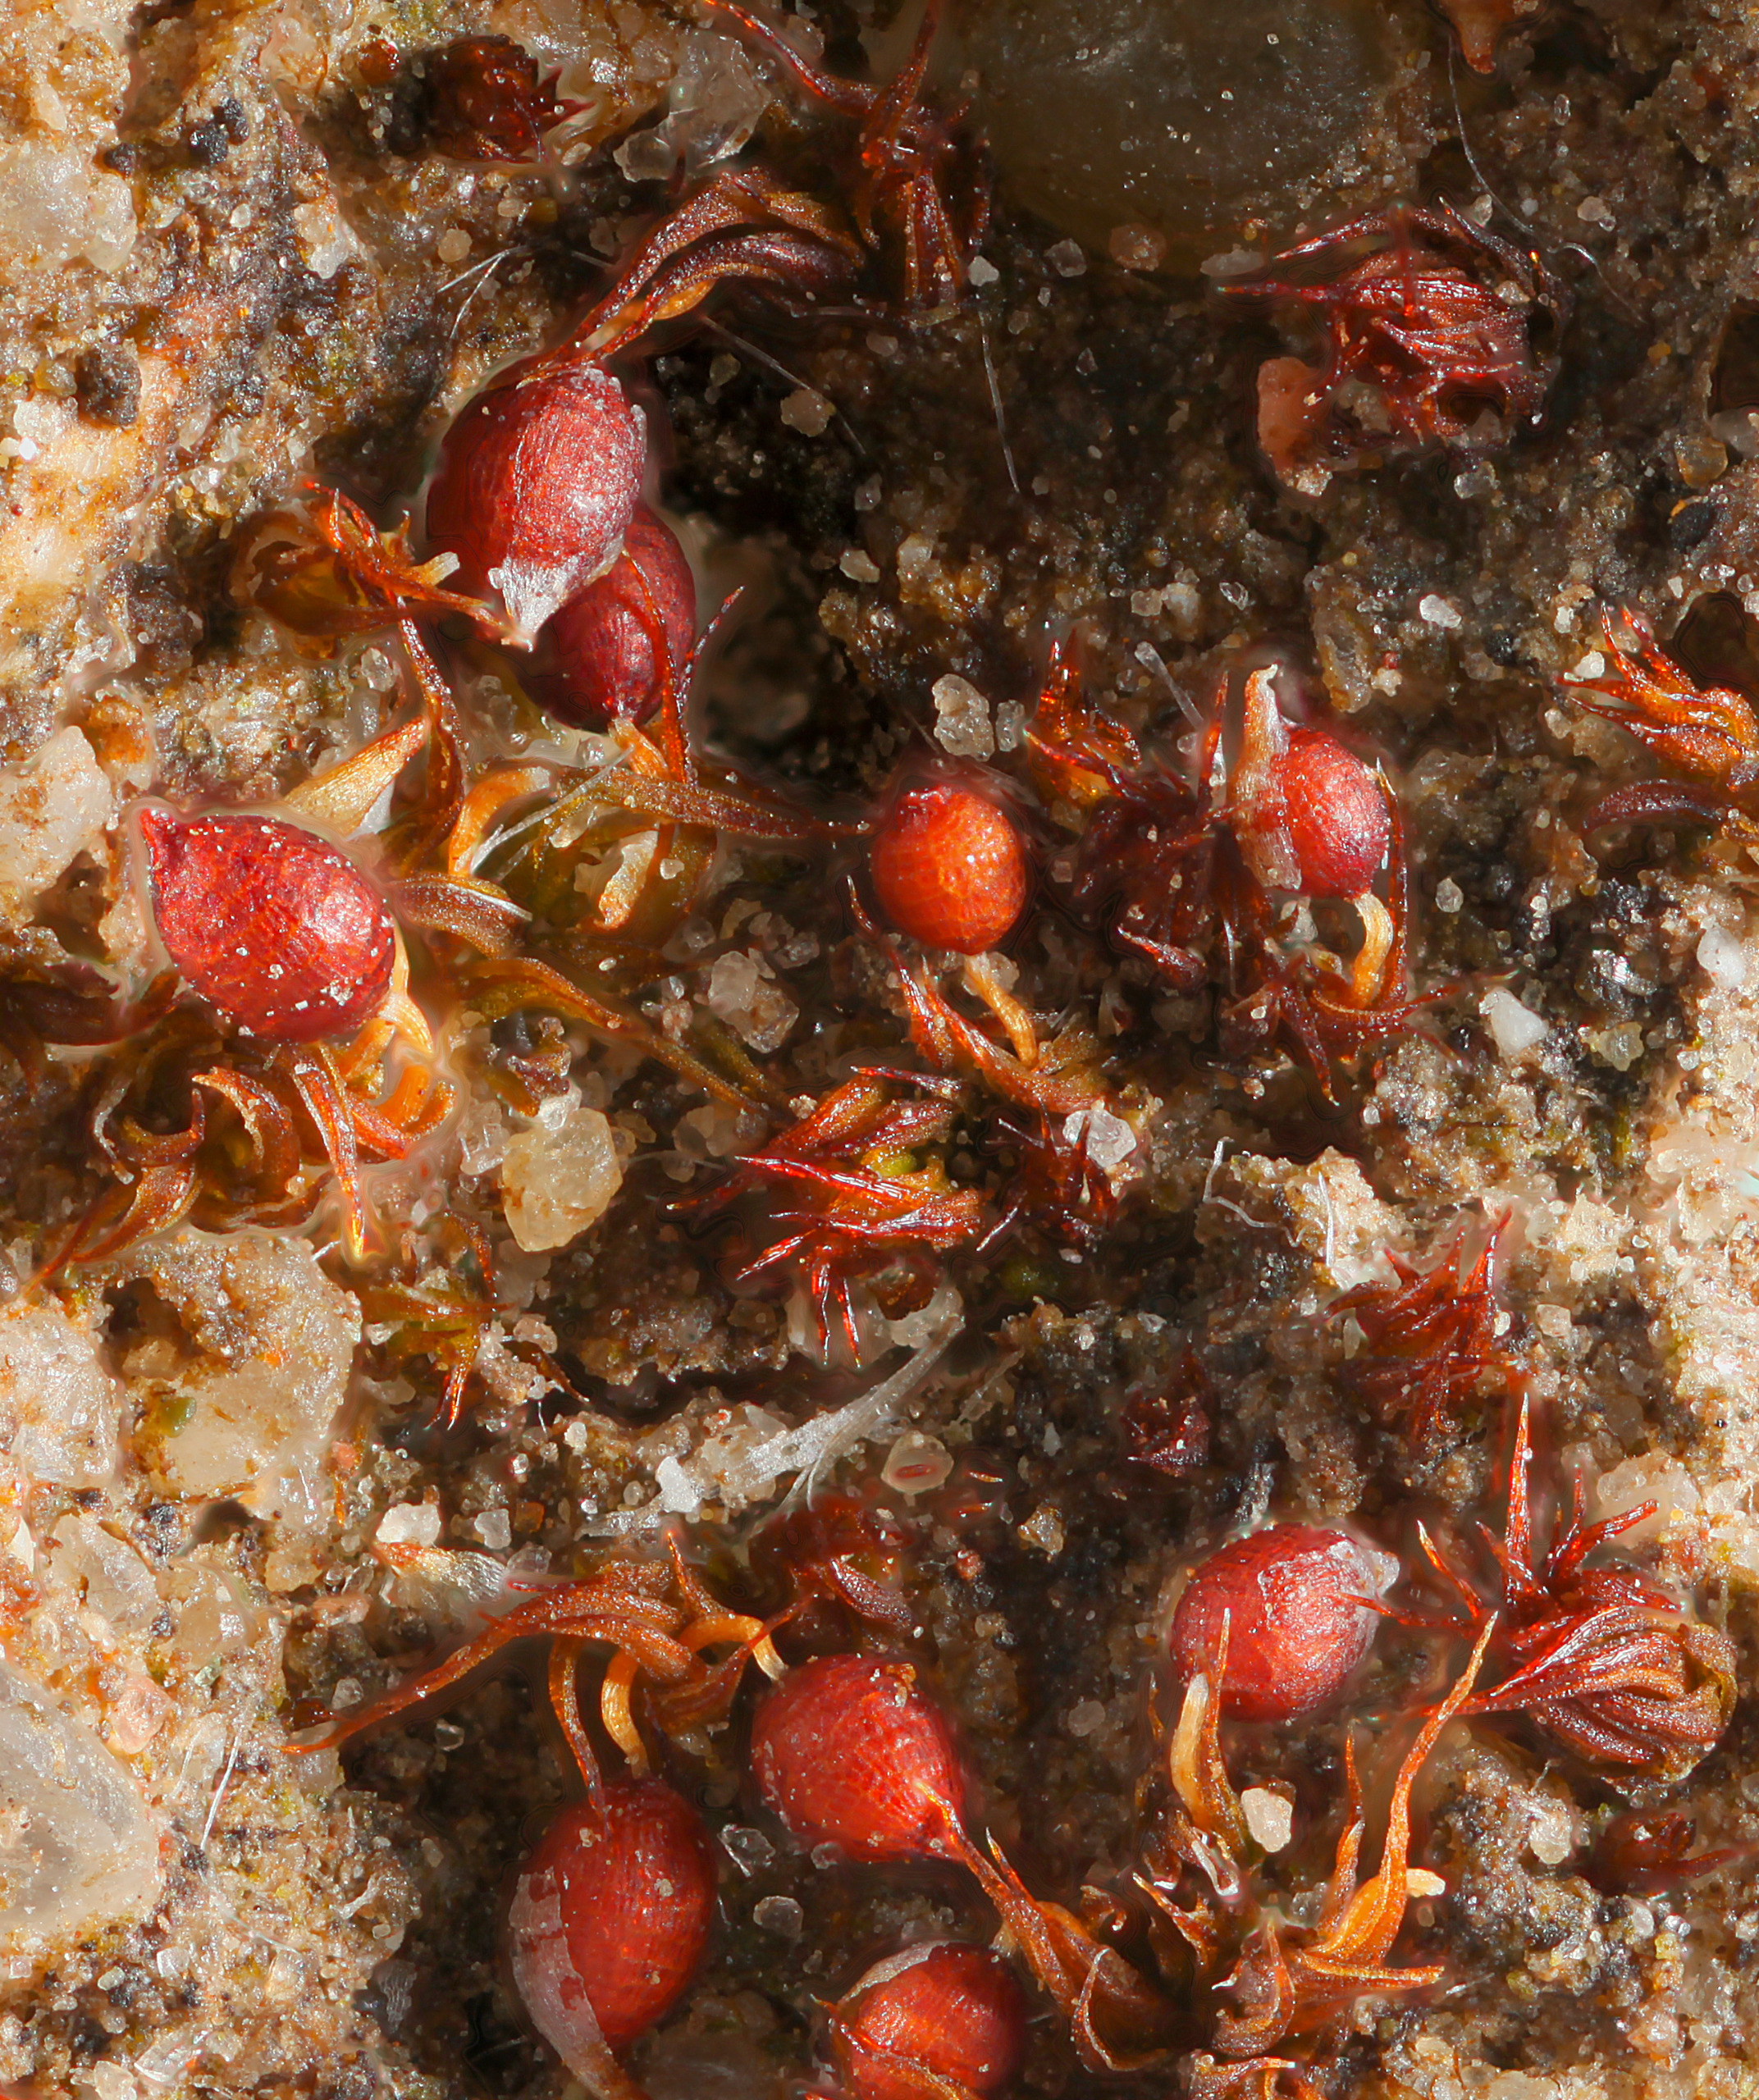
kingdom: Plantae
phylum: Bryophyta
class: Bryopsida
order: Pottiales
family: Pottiaceae
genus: Microbryum
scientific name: Microbryum curvicollum
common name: Bøjet småmos
